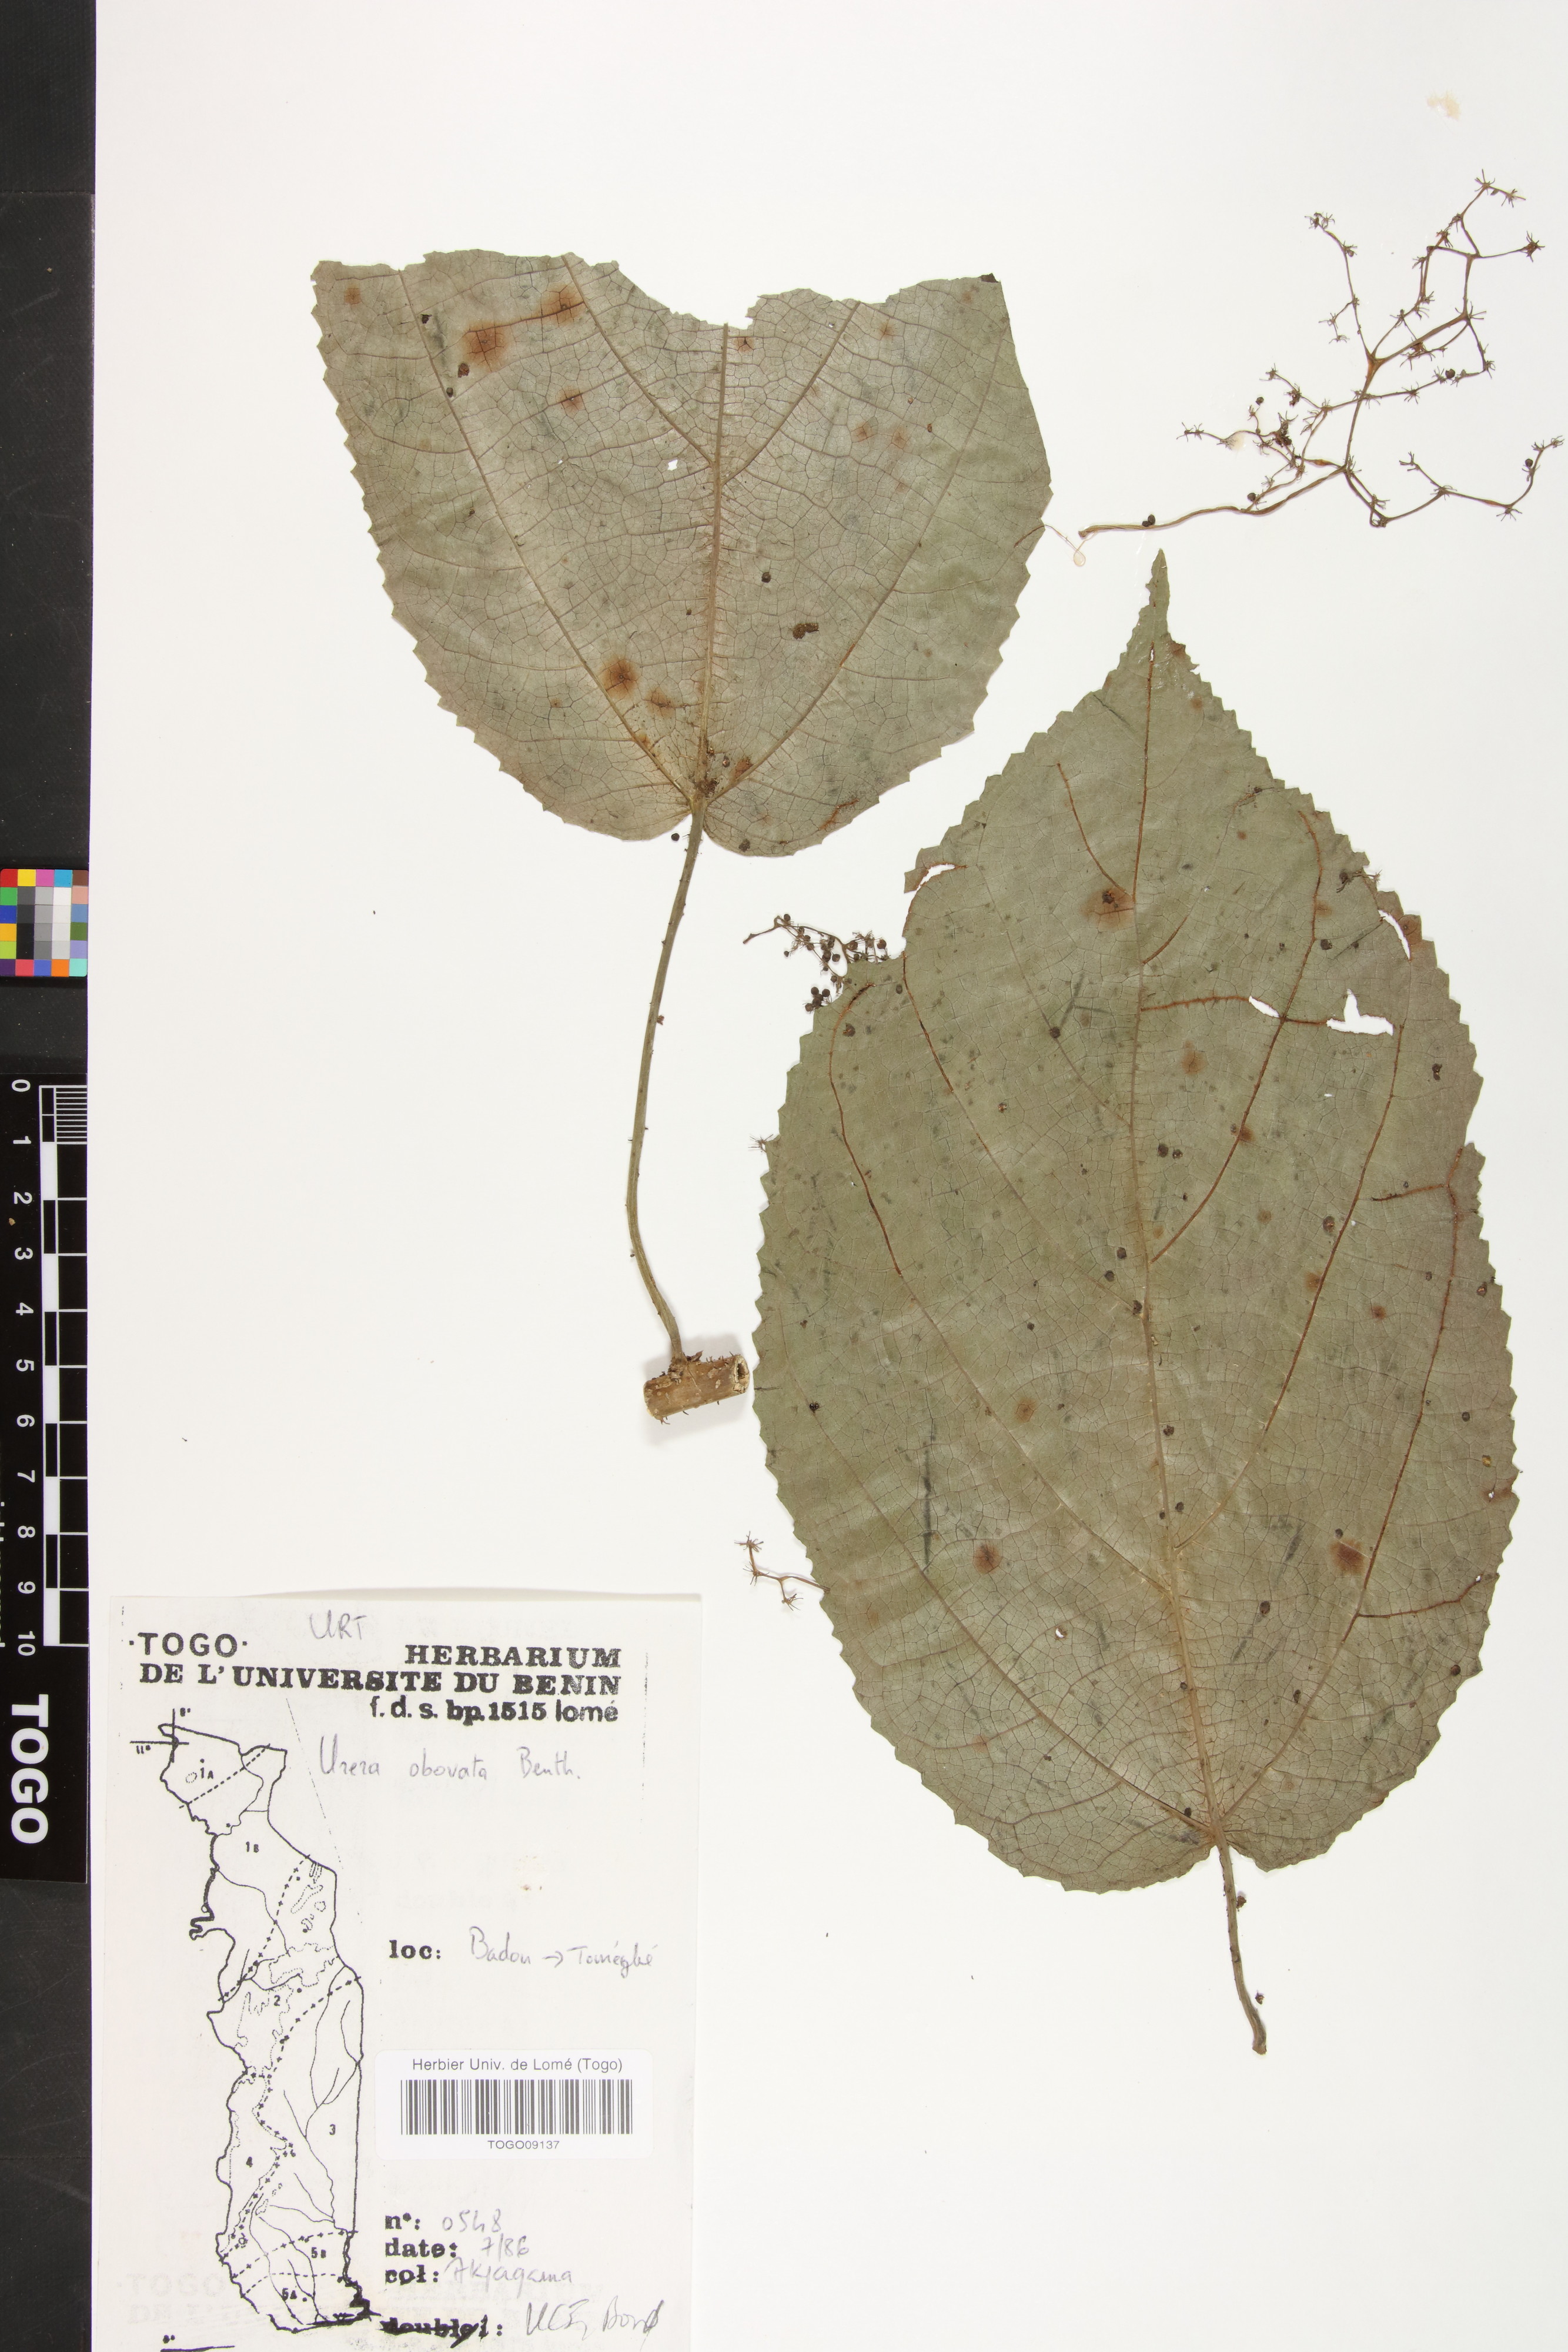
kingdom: Plantae
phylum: Tracheophyta
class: Magnoliopsida
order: Rosales
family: Urticaceae
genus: Scepocarpus
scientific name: Scepocarpus obovatus
